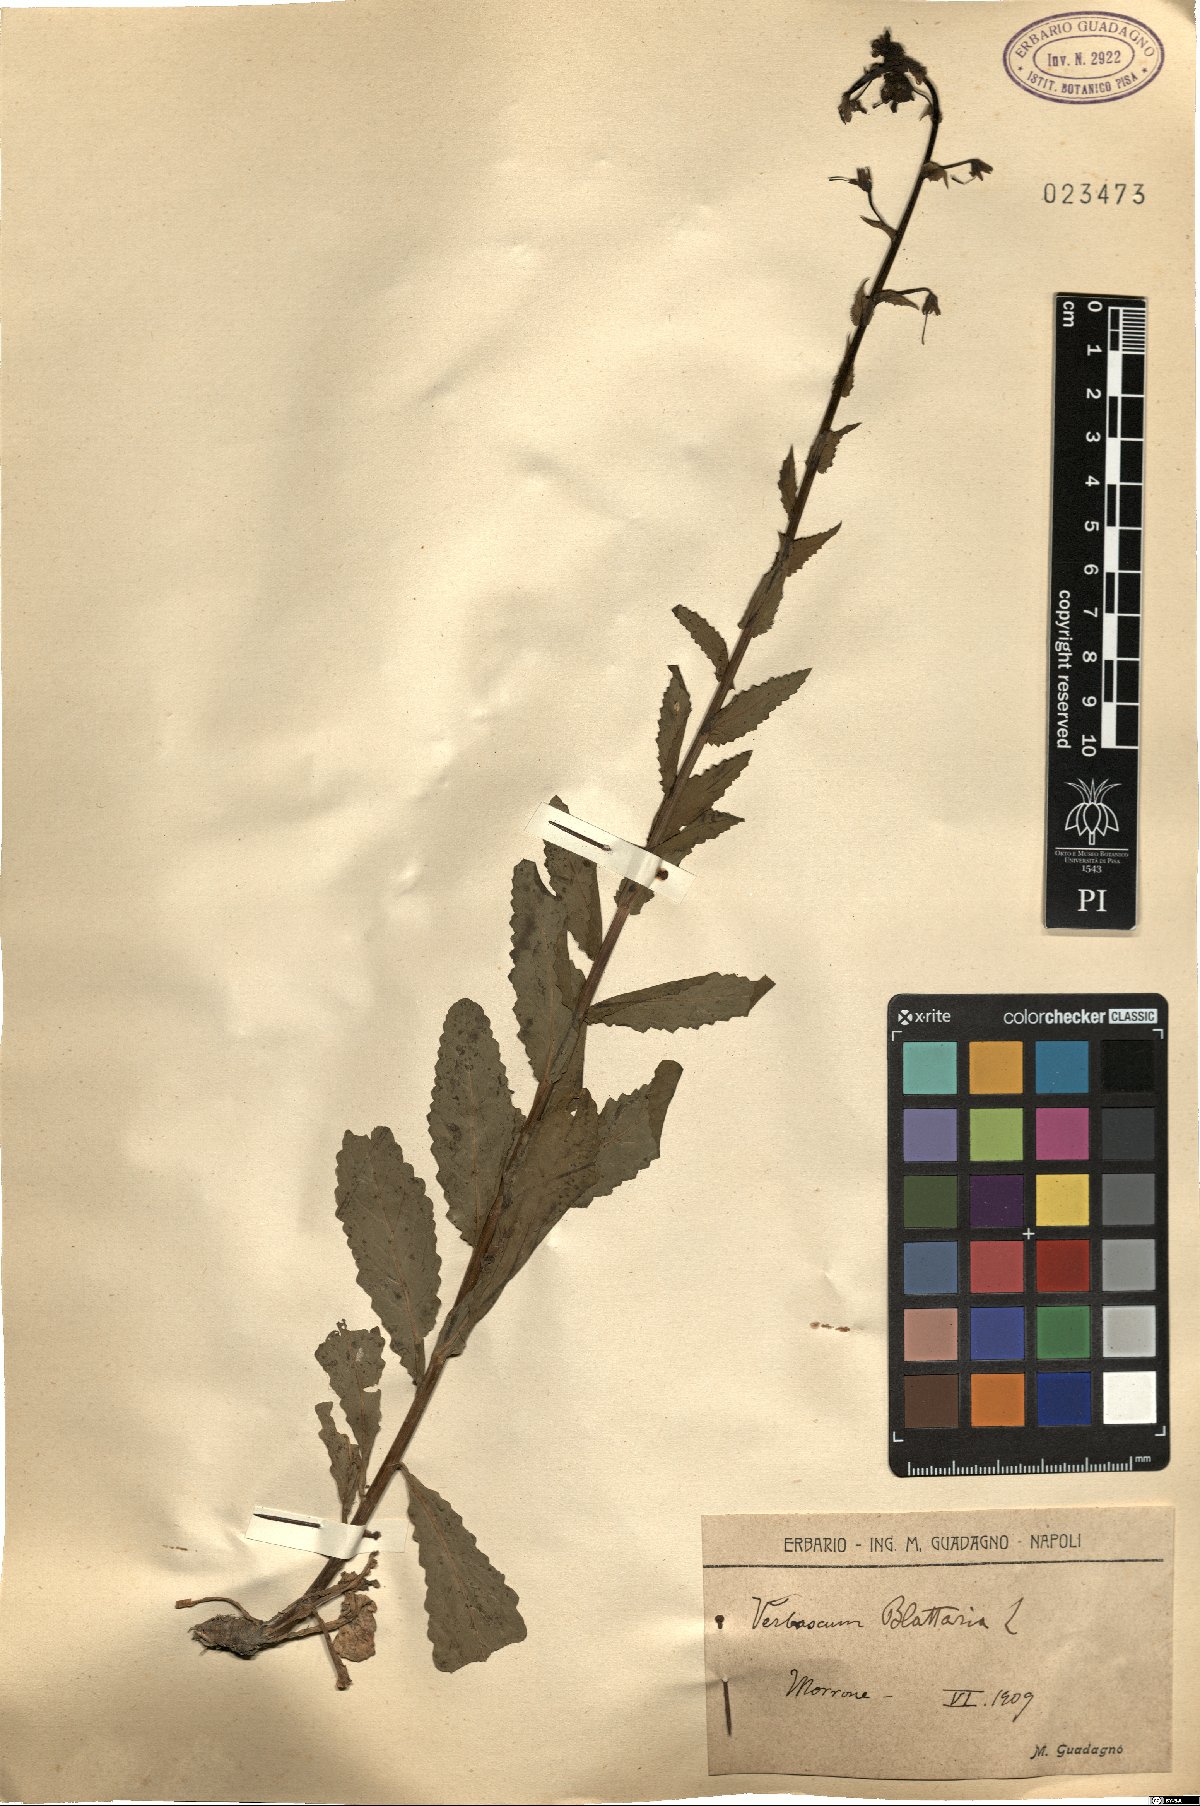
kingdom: Plantae
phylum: Tracheophyta
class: Magnoliopsida
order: Lamiales
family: Scrophulariaceae
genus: Verbascum
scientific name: Verbascum blattaria
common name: Moth mullein
